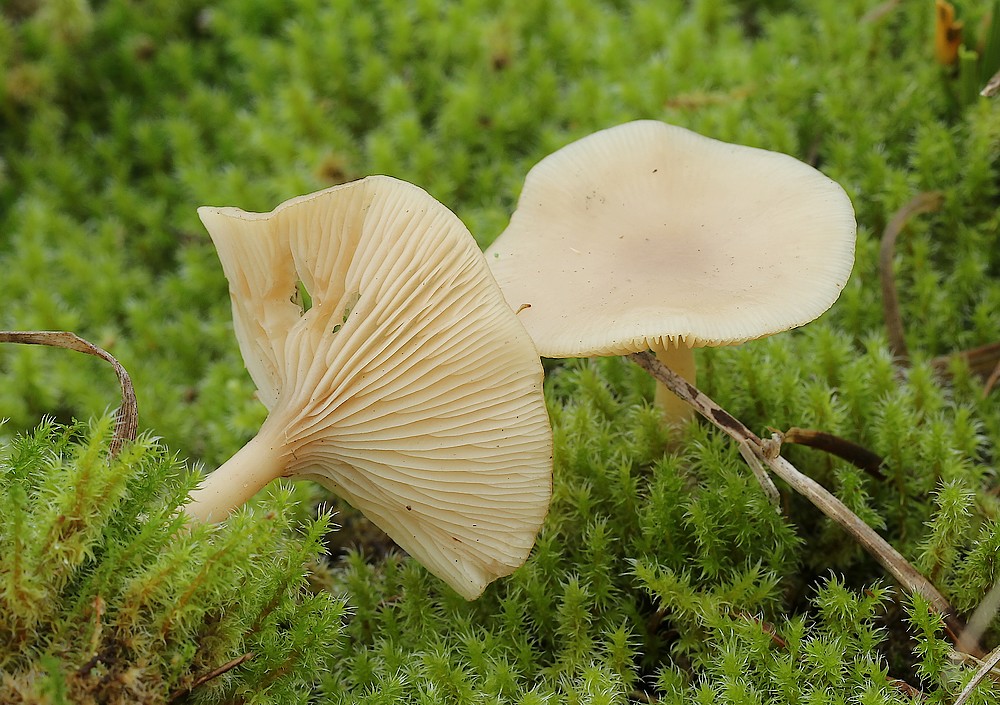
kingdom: Fungi
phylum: Basidiomycota
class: Agaricomycetes
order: Agaricales
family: Tricholomataceae
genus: Clitocybe
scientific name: Clitocybe
